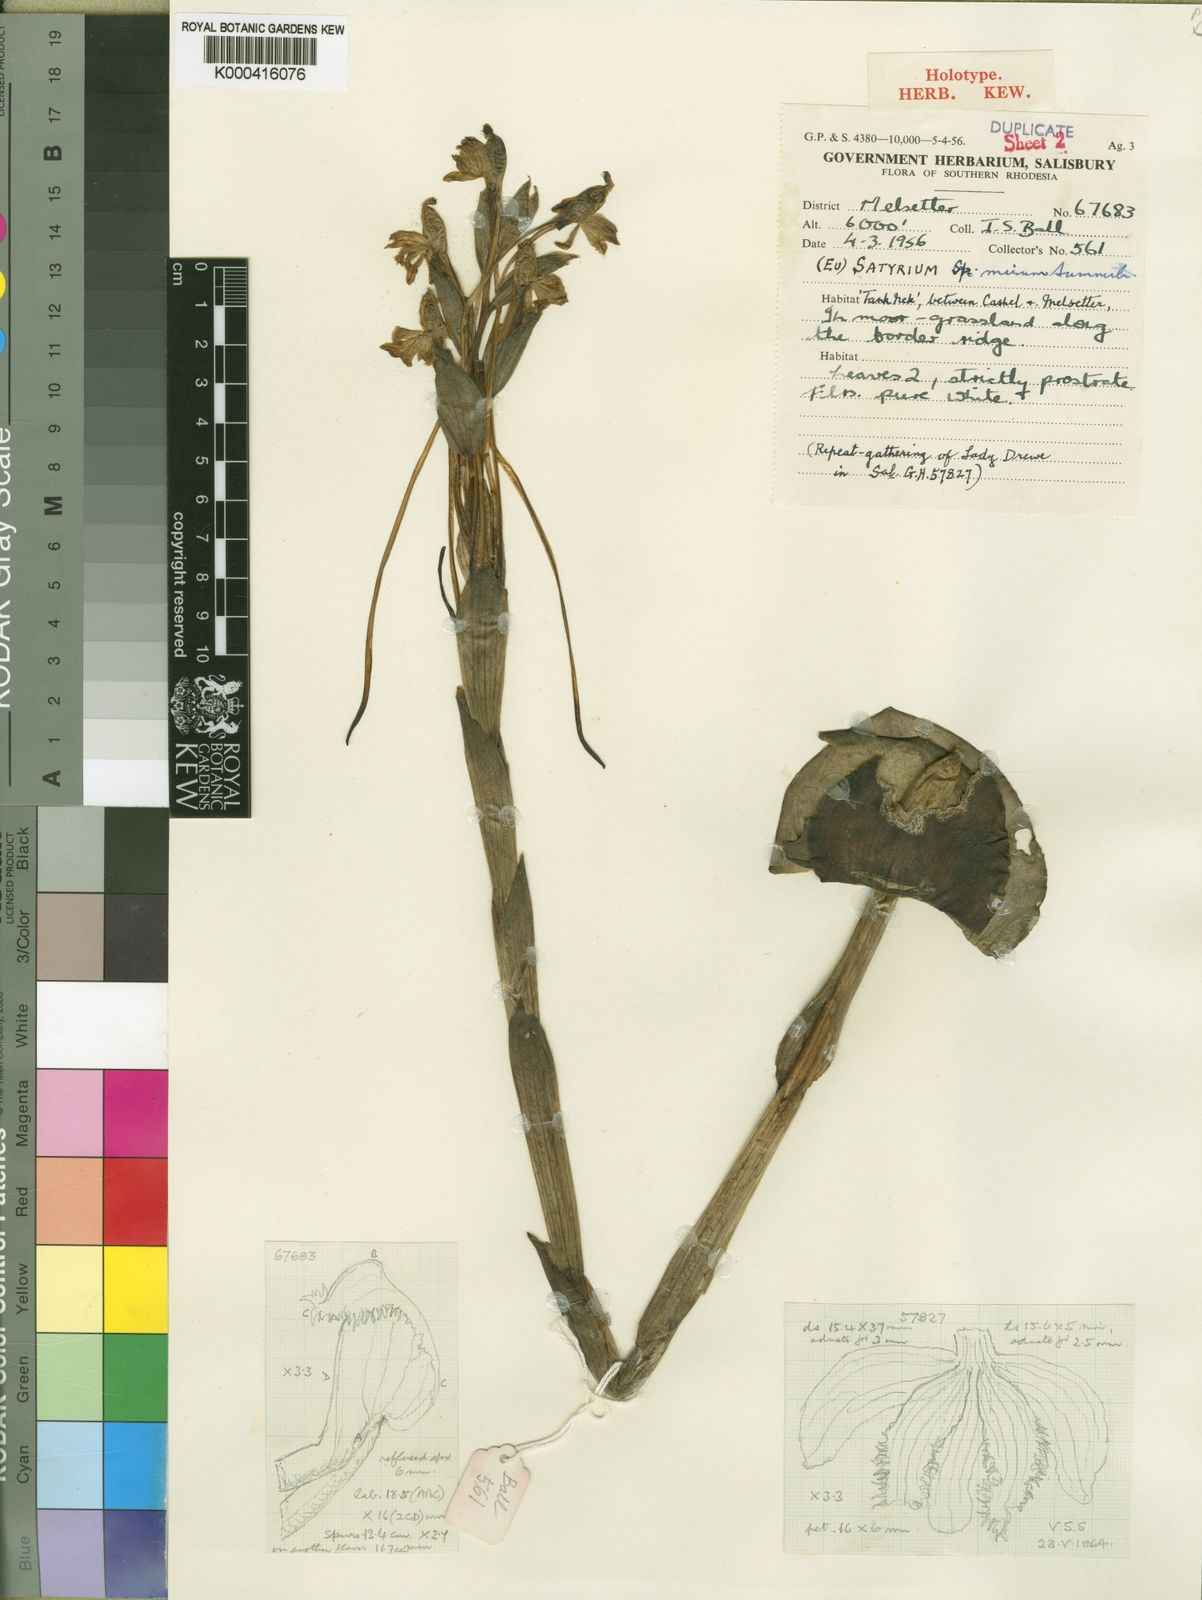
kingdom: Plantae
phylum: Tracheophyta
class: Liliopsida
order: Asparagales
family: Orchidaceae
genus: Satyrium
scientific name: Satyrium mirum
